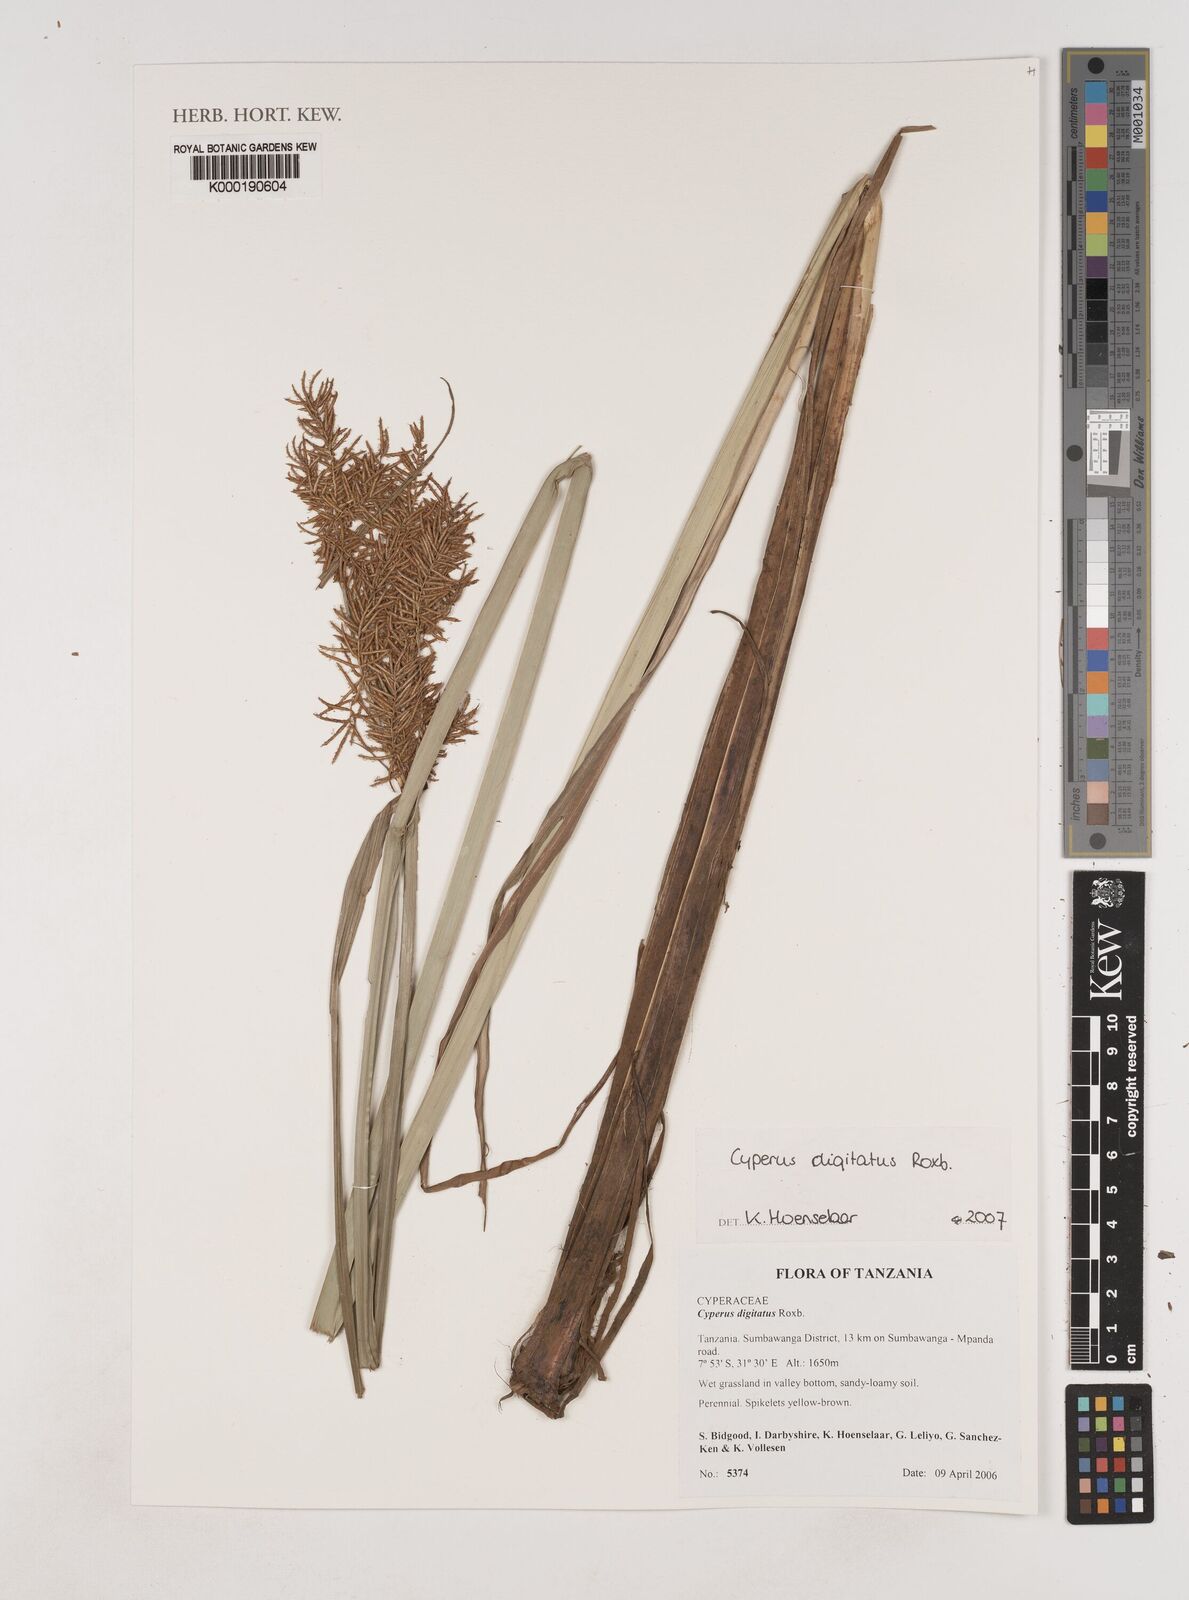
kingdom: Plantae
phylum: Tracheophyta
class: Liliopsida
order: Poales
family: Cyperaceae
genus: Cyperus
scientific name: Cyperus digitatus
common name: Finger flatsedge
